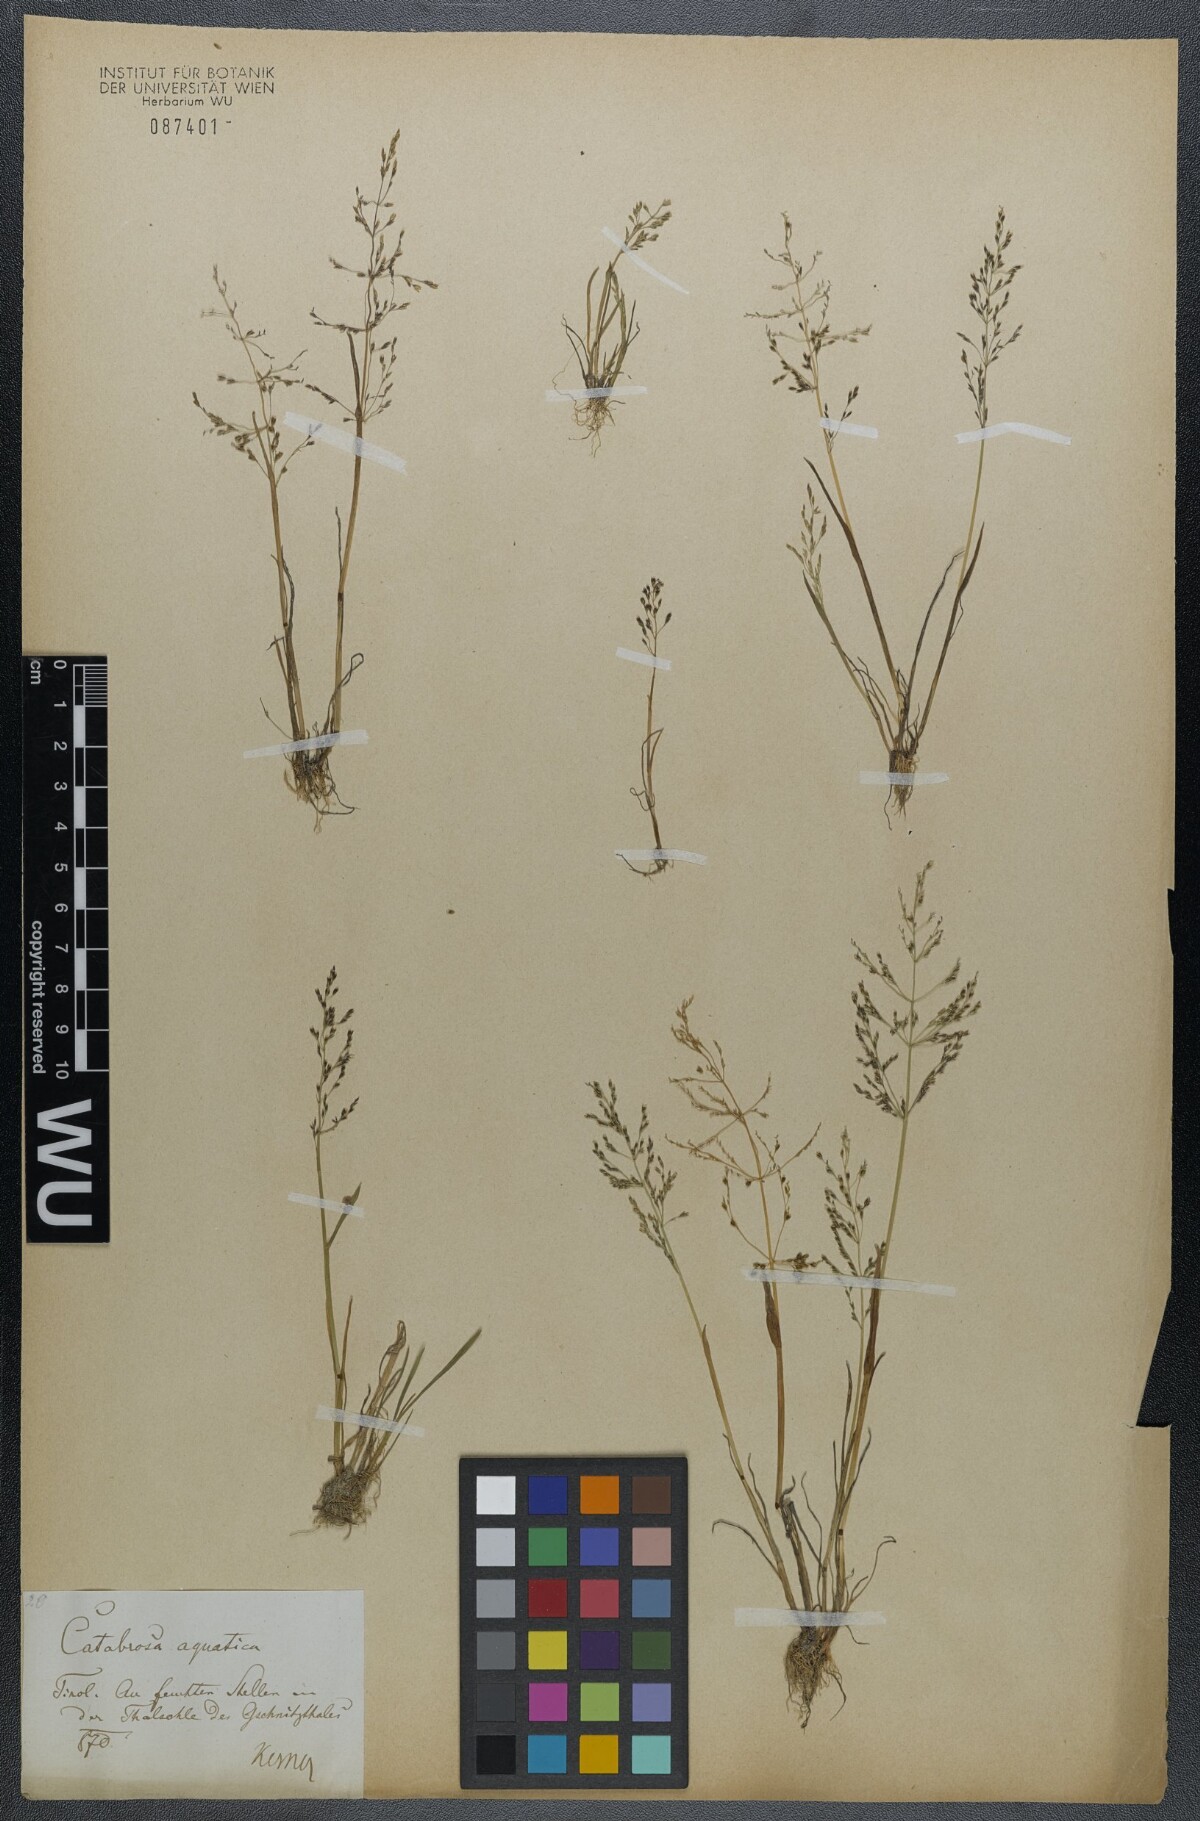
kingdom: Plantae
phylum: Tracheophyta
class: Liliopsida
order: Poales
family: Poaceae
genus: Catabrosa
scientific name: Catabrosa aquatica
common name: Whorl-grass
